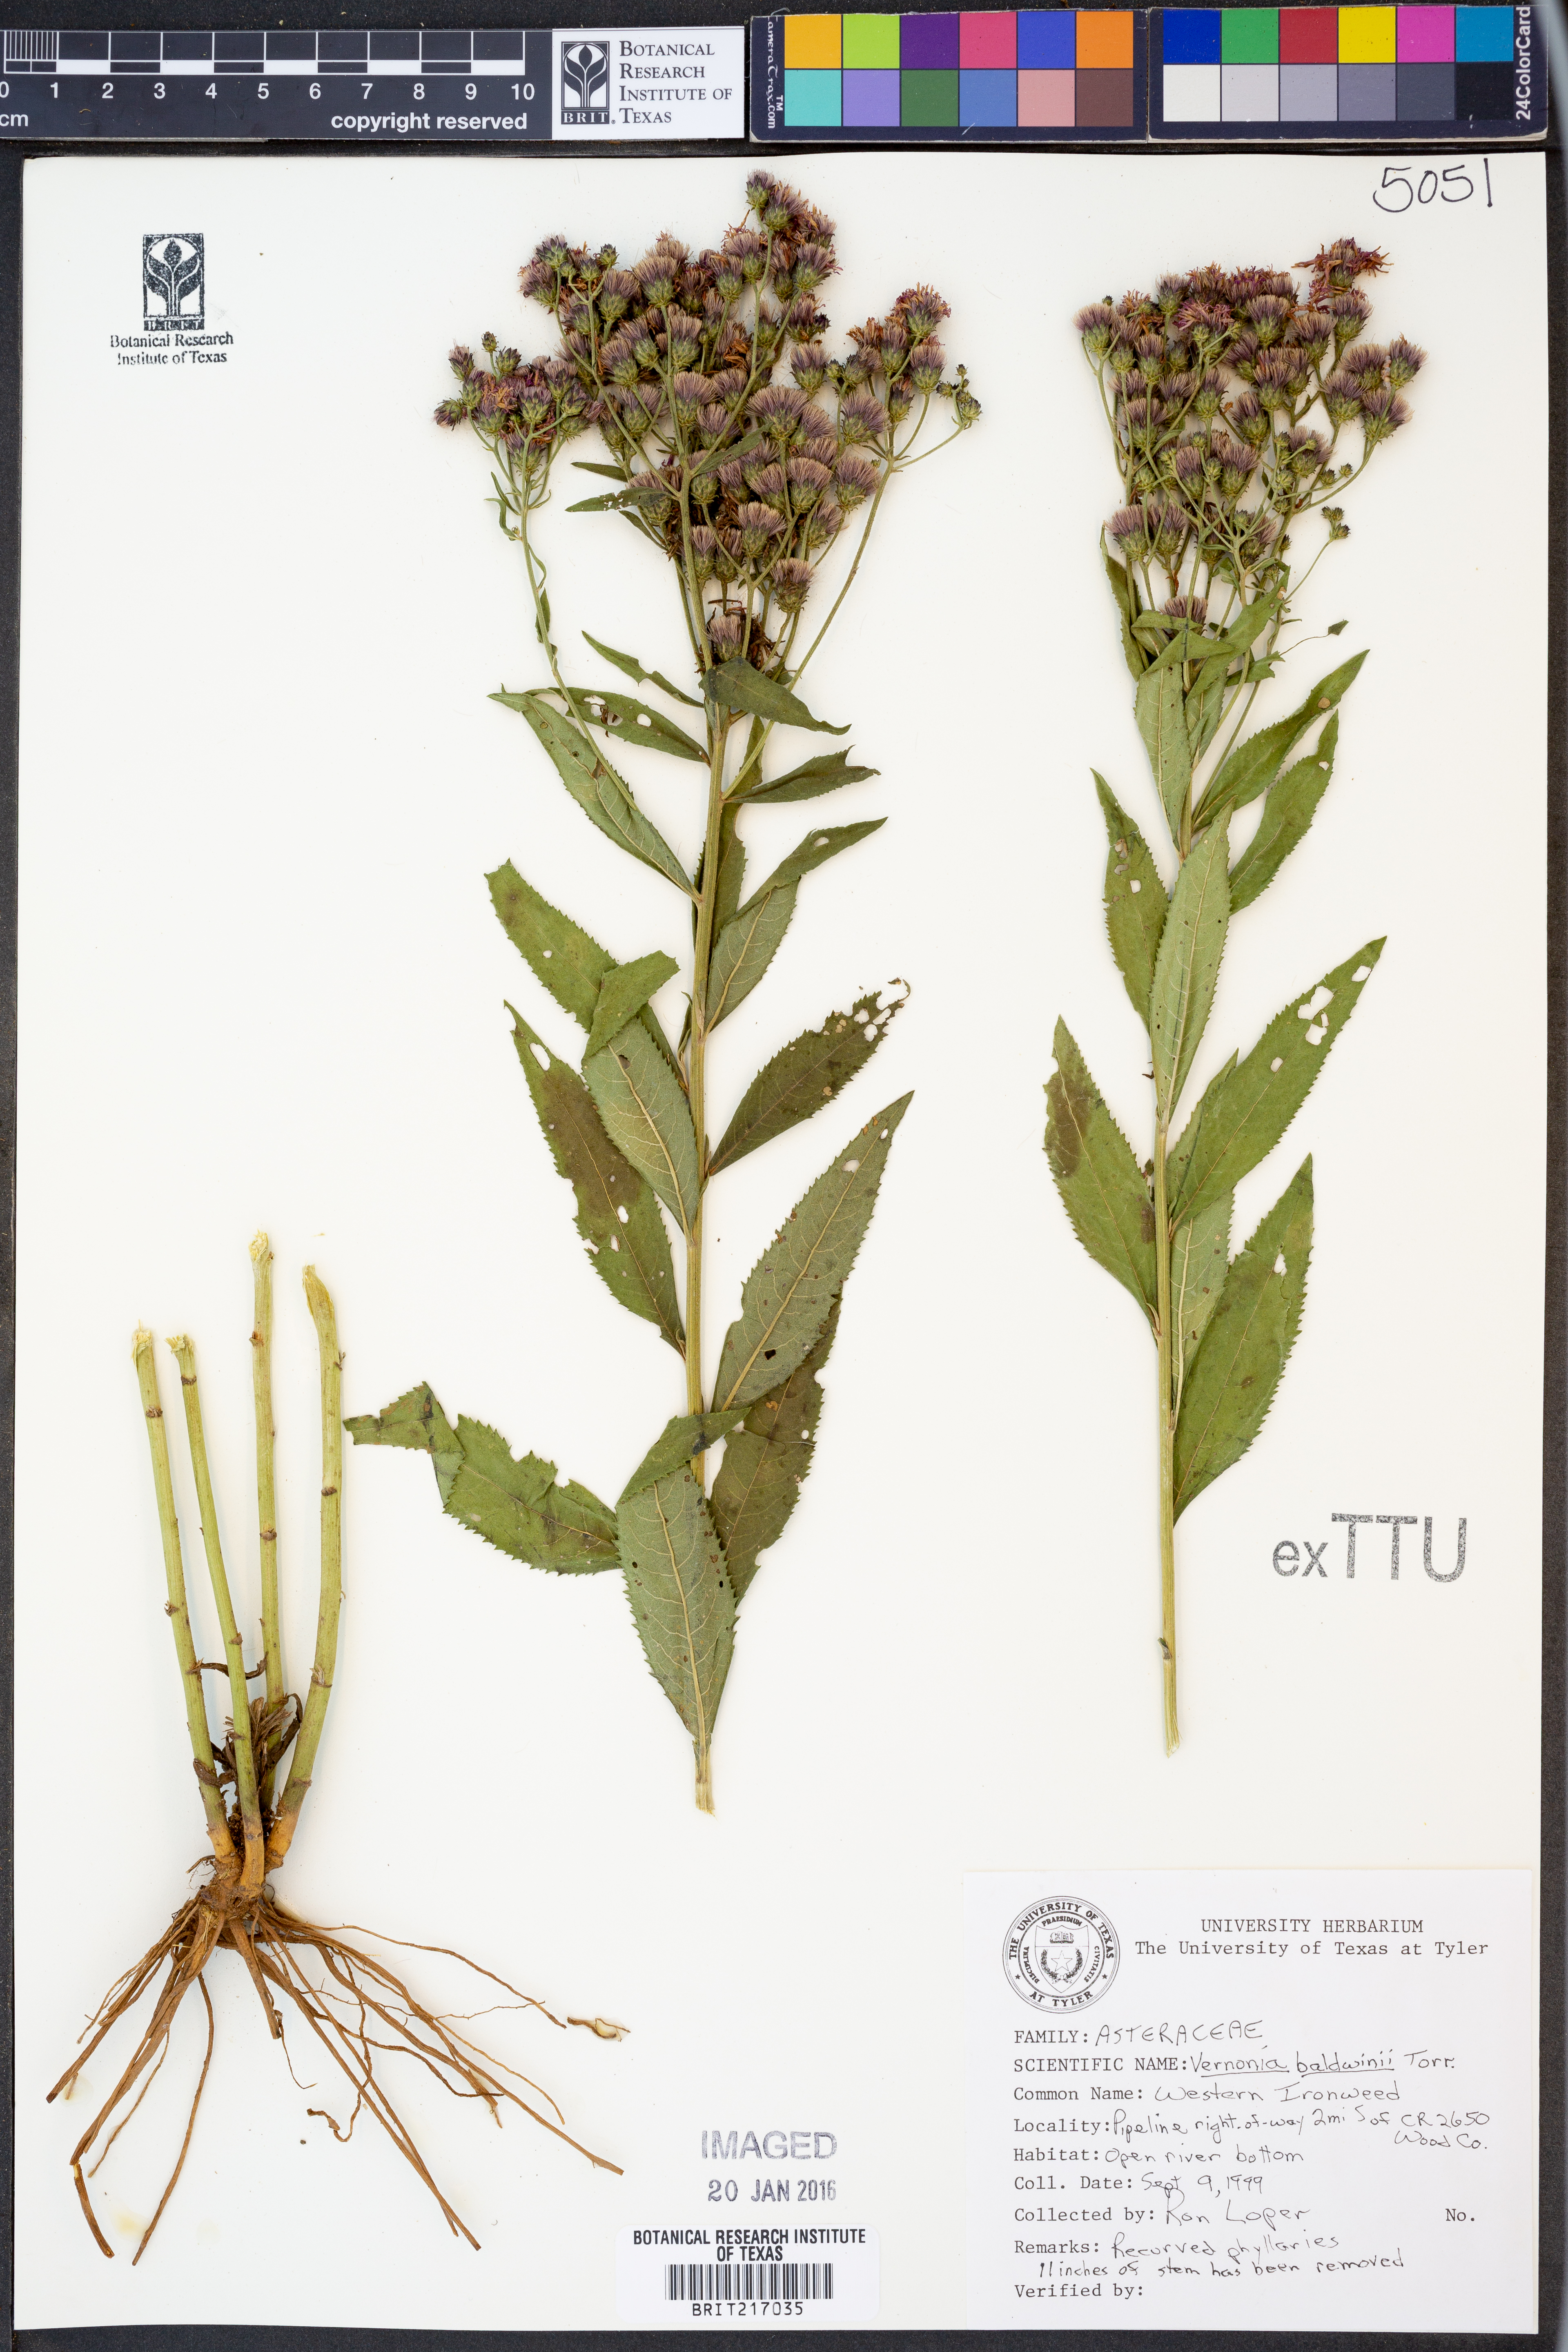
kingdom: Plantae
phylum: Tracheophyta
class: Magnoliopsida
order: Asterales
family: Asteraceae
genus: Vernonia
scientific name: Vernonia baldwinii
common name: Western ironweed
